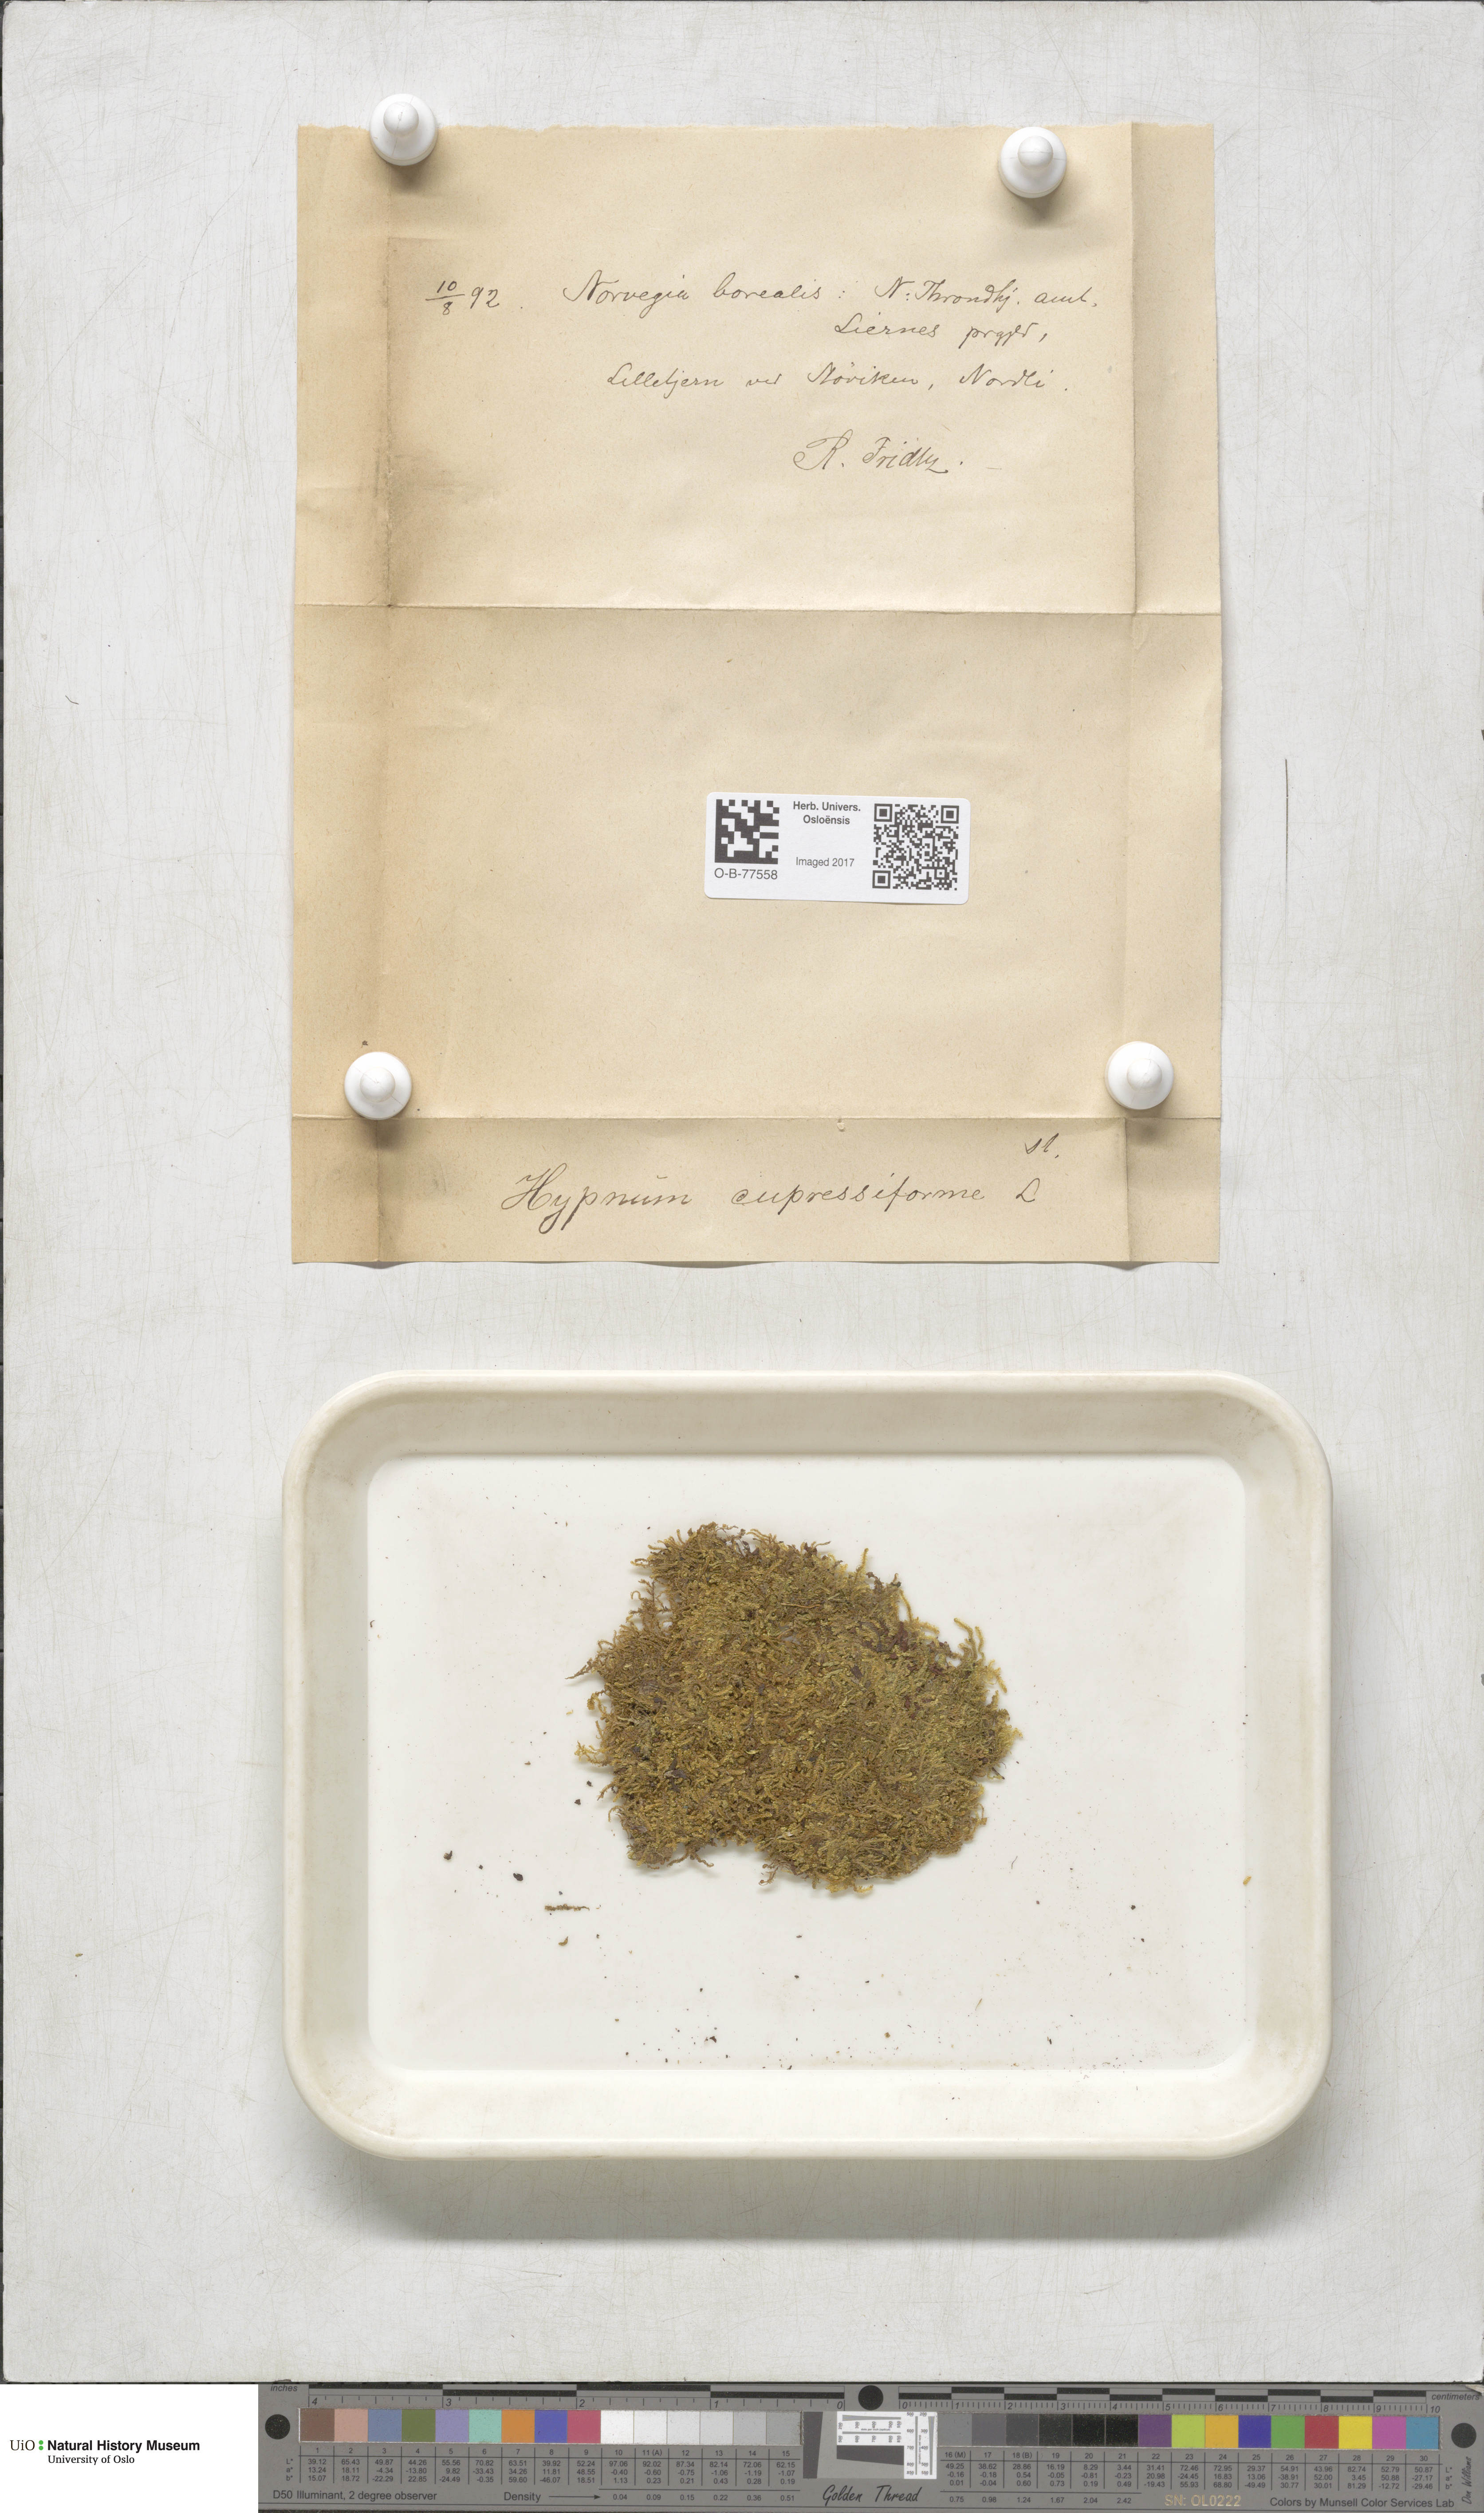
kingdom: Plantae
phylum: Bryophyta
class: Bryopsida
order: Hypnales
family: Hypnaceae
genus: Hypnum
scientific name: Hypnum cupressiforme
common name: Cypress-leaved plait-moss
